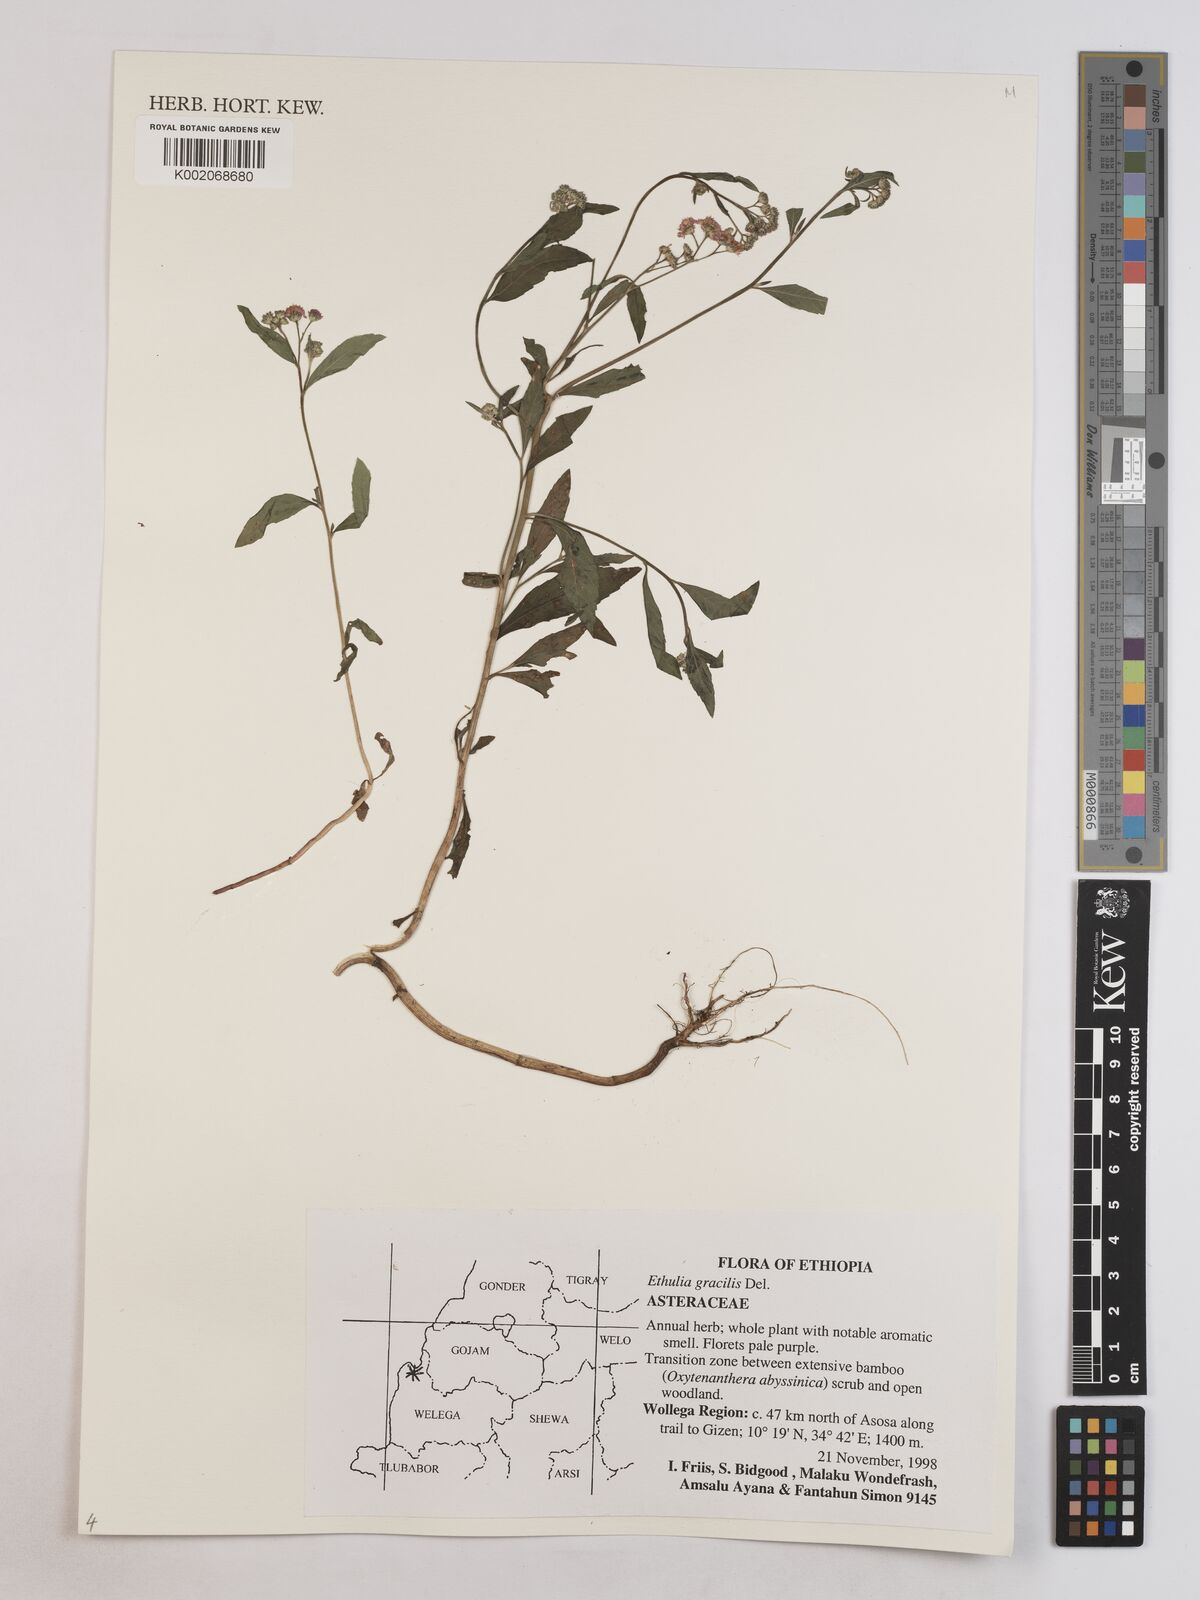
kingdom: Plantae
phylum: Tracheophyta
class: Magnoliopsida
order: Asterales
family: Asteraceae
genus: Ethulia
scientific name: Ethulia gracilis
